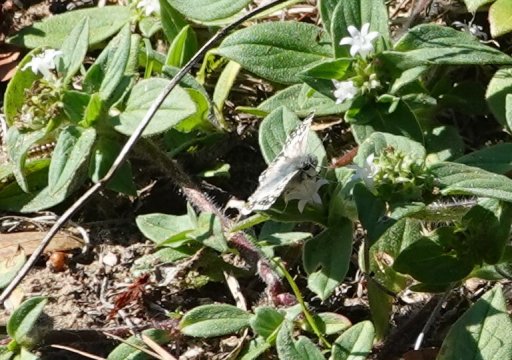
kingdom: Animalia
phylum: Arthropoda
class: Insecta
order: Lepidoptera
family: Hesperiidae
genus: Pyrgus
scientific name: Pyrgus communis
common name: White Checkered-Skipper
